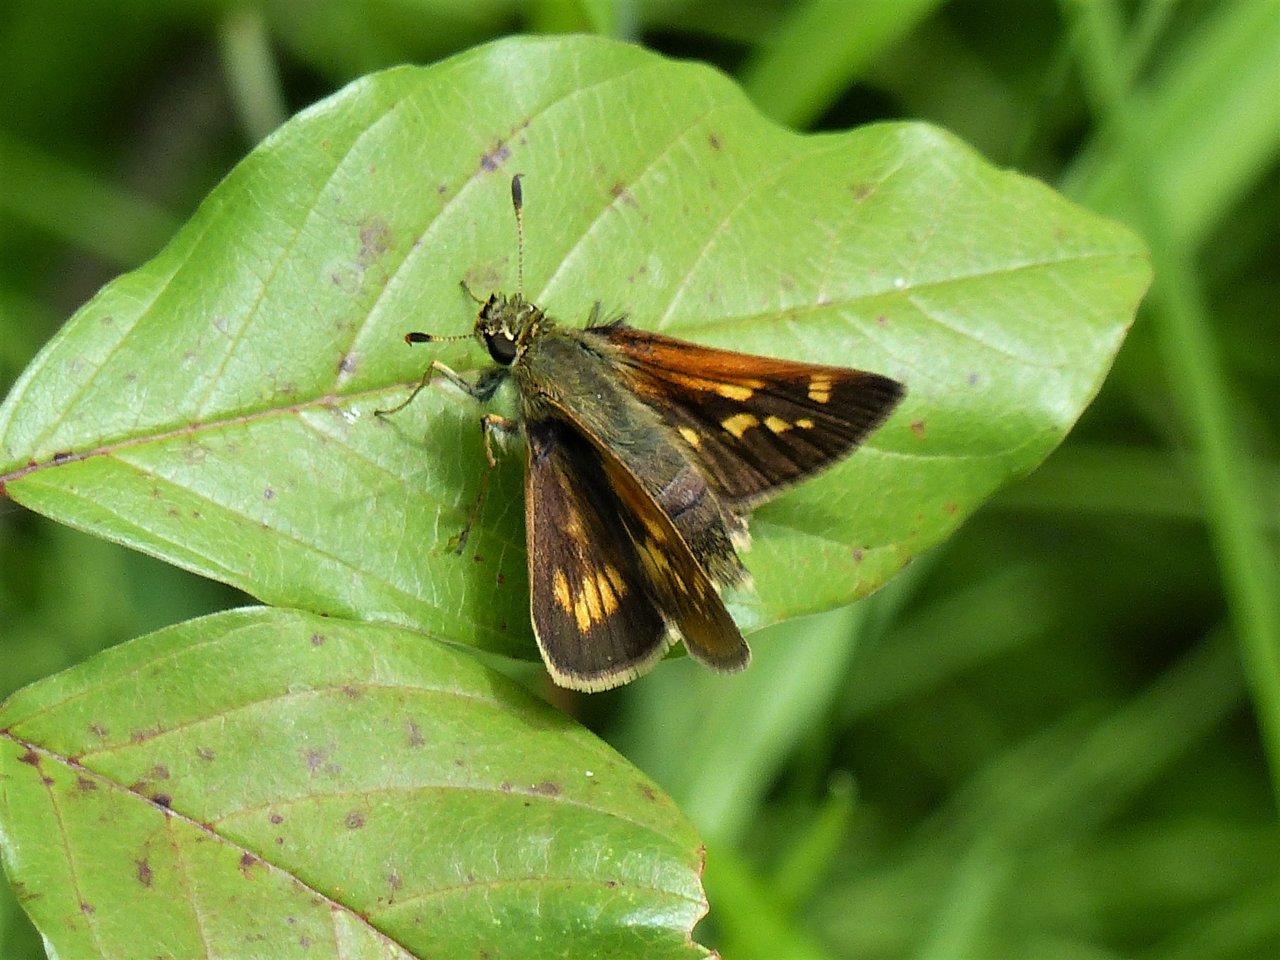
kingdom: Animalia
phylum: Arthropoda
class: Insecta
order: Lepidoptera
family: Hesperiidae
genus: Polites
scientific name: Polites coras
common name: Peck's Skipper
